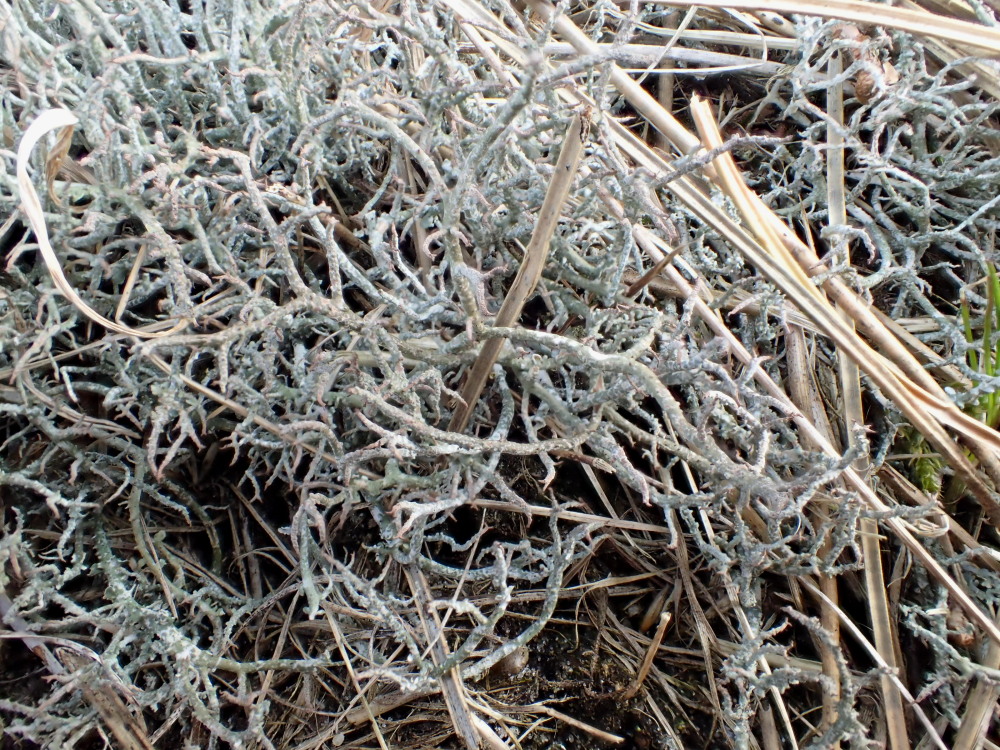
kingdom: Fungi
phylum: Ascomycota
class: Lecanoromycetes
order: Lecanorales
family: Cladoniaceae
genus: Cladonia
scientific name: Cladonia furcata
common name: kløftet bægerlav
